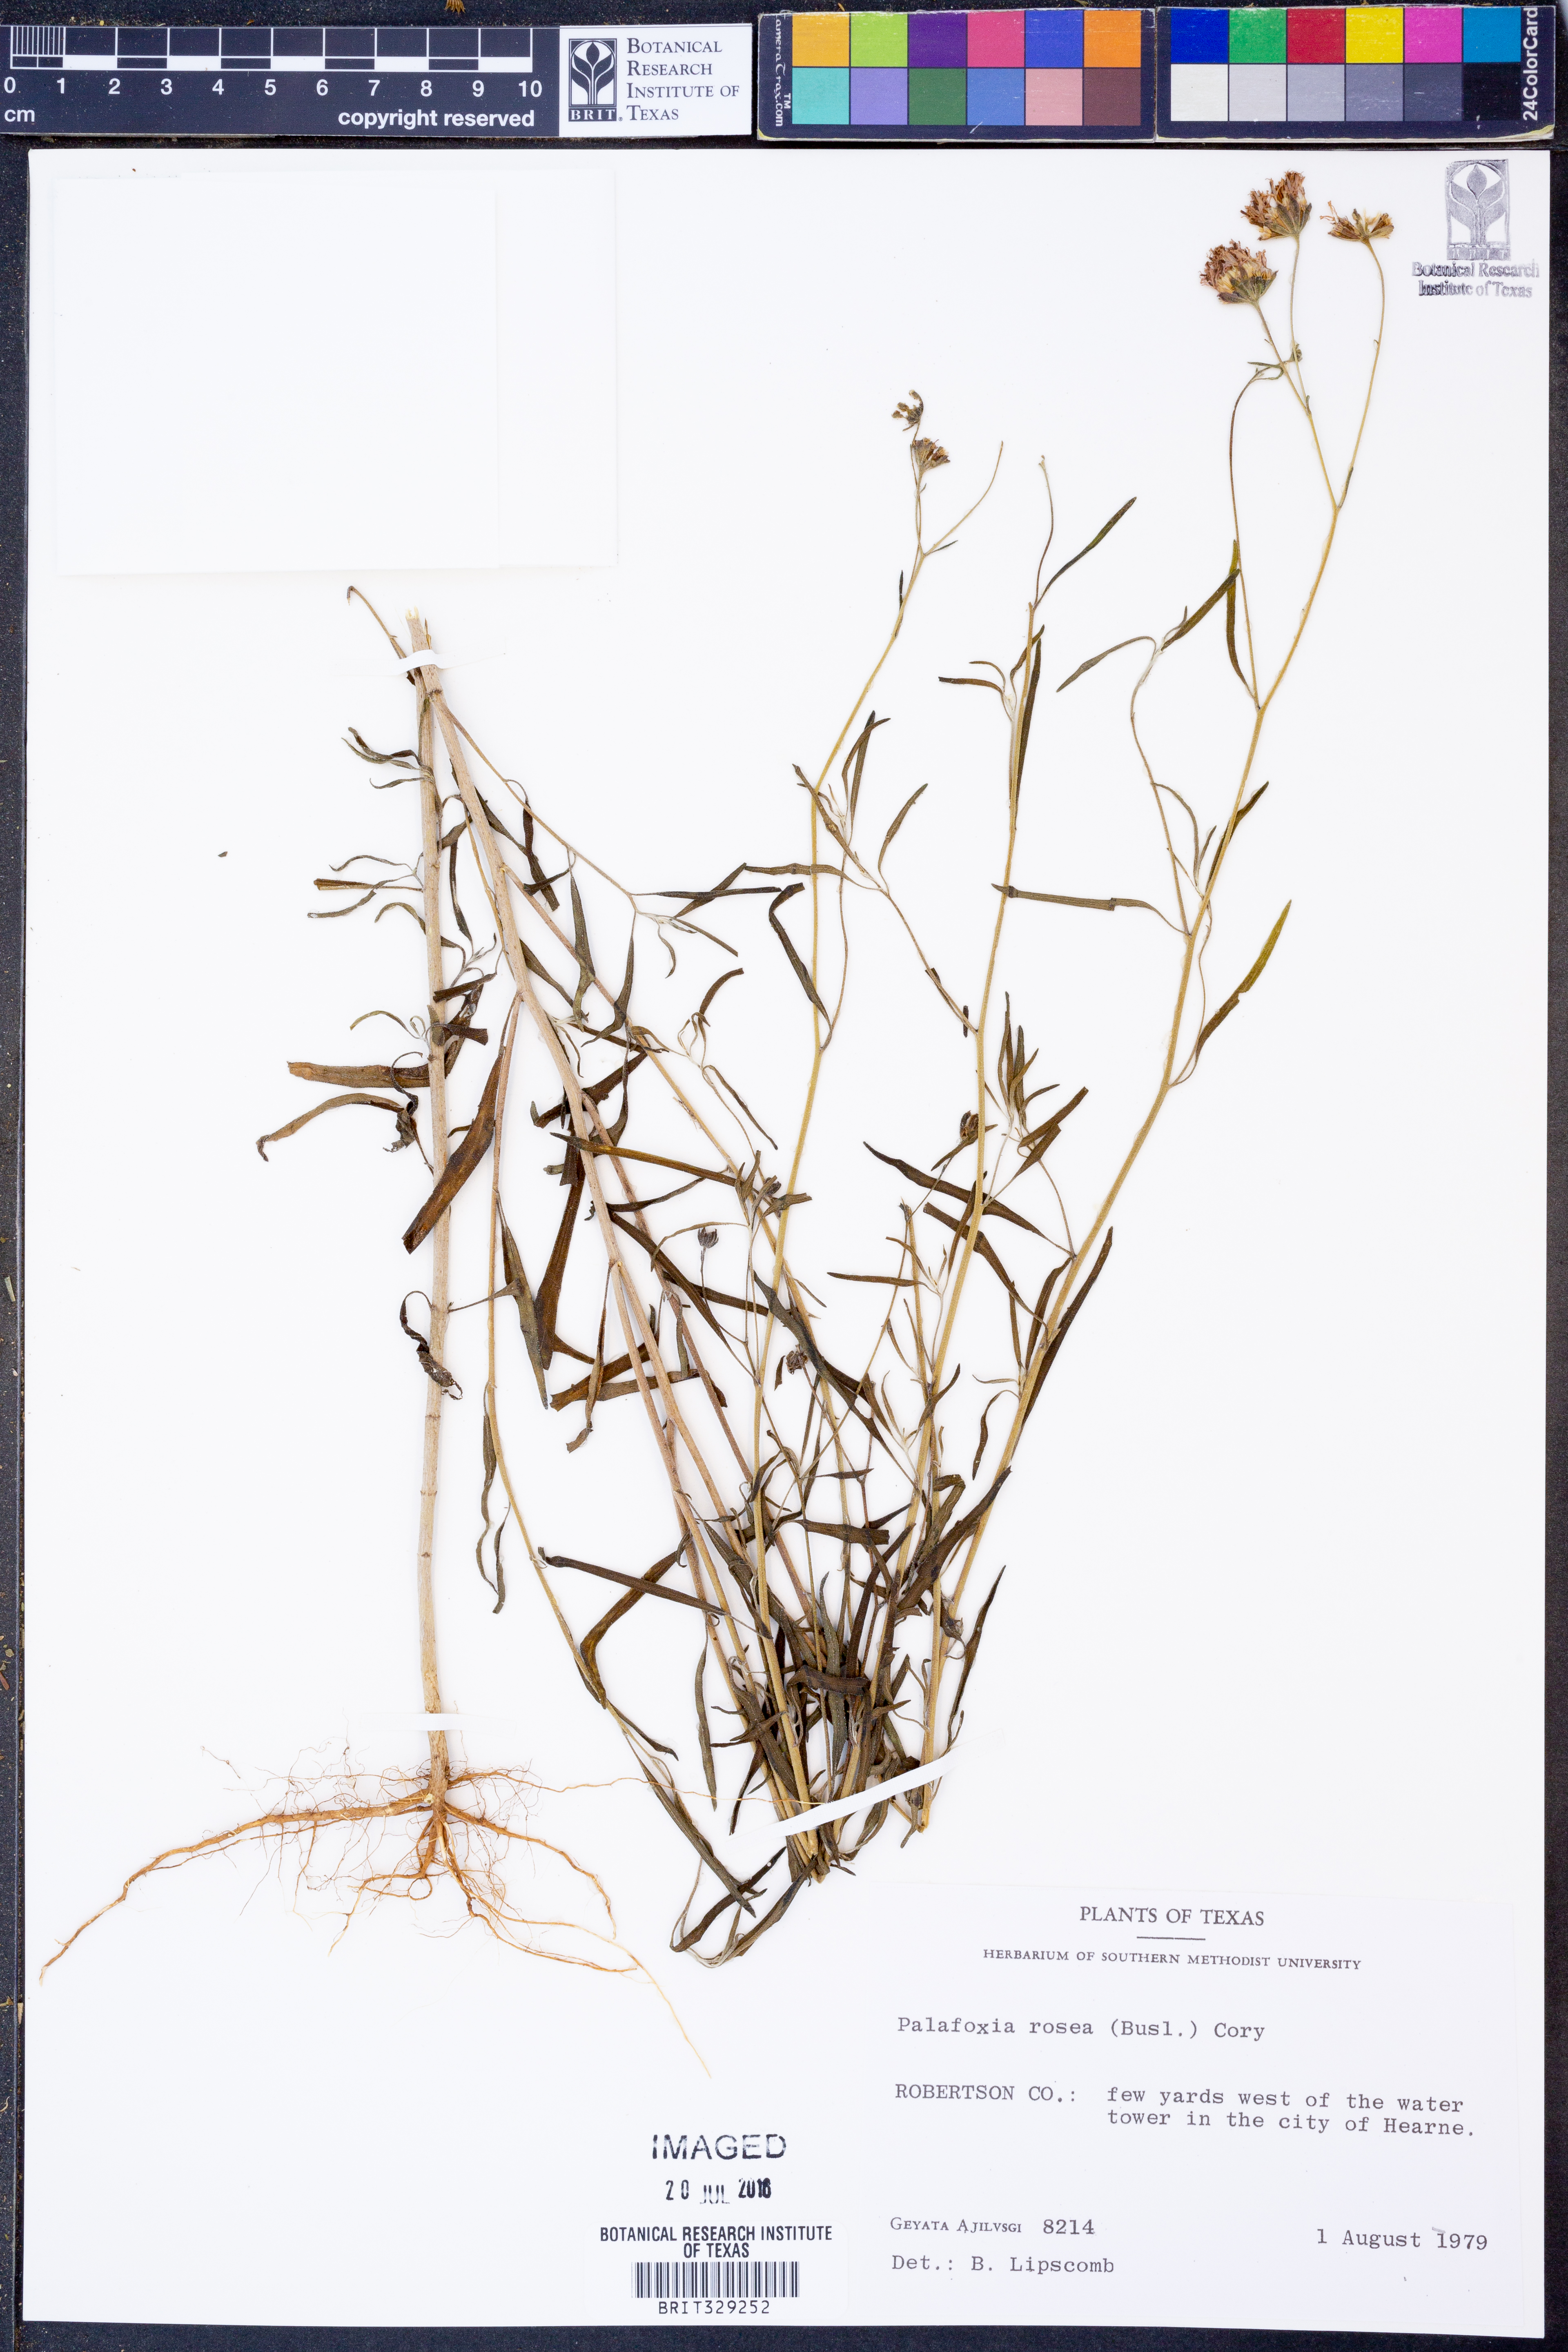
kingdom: Plantae
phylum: Tracheophyta
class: Magnoliopsida
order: Asterales
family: Asteraceae
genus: Palafoxia
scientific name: Palafoxia rosea
